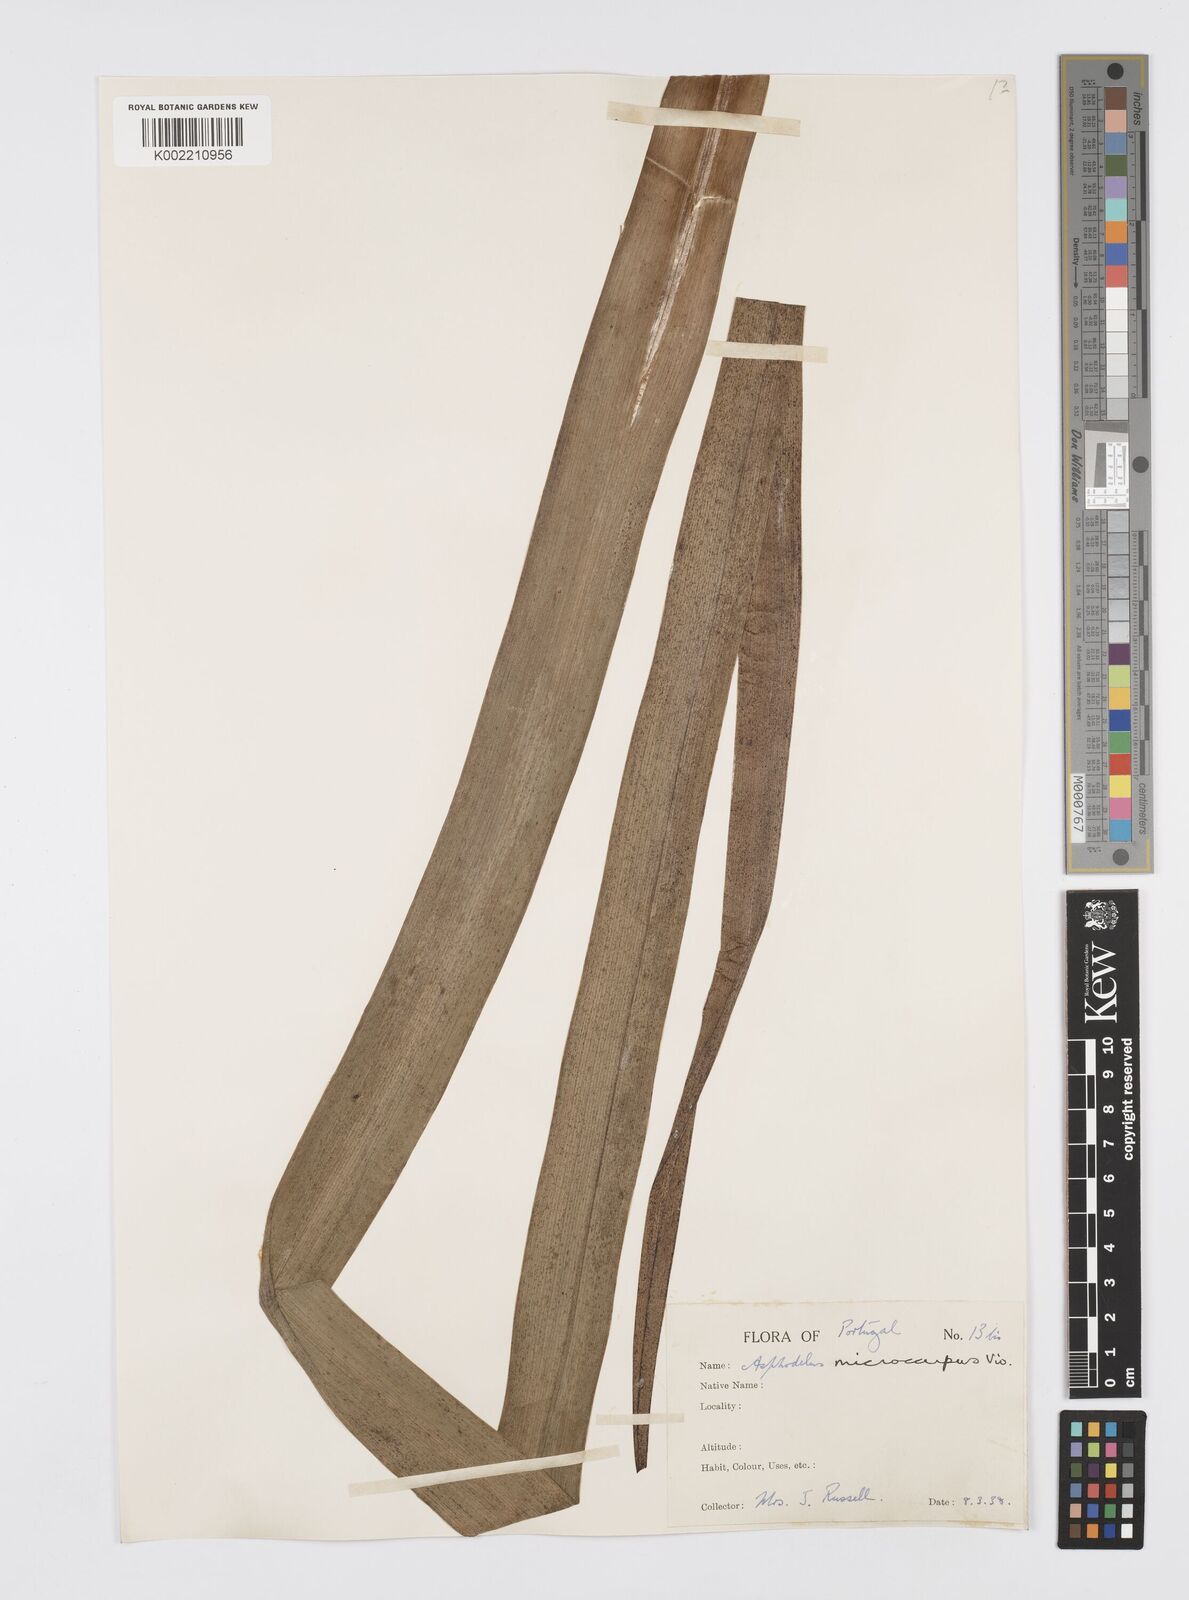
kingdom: Plantae
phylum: Tracheophyta
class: Liliopsida
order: Asparagales
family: Asphodelaceae
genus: Asphodelus
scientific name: Asphodelus ramosus
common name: Silverrod
